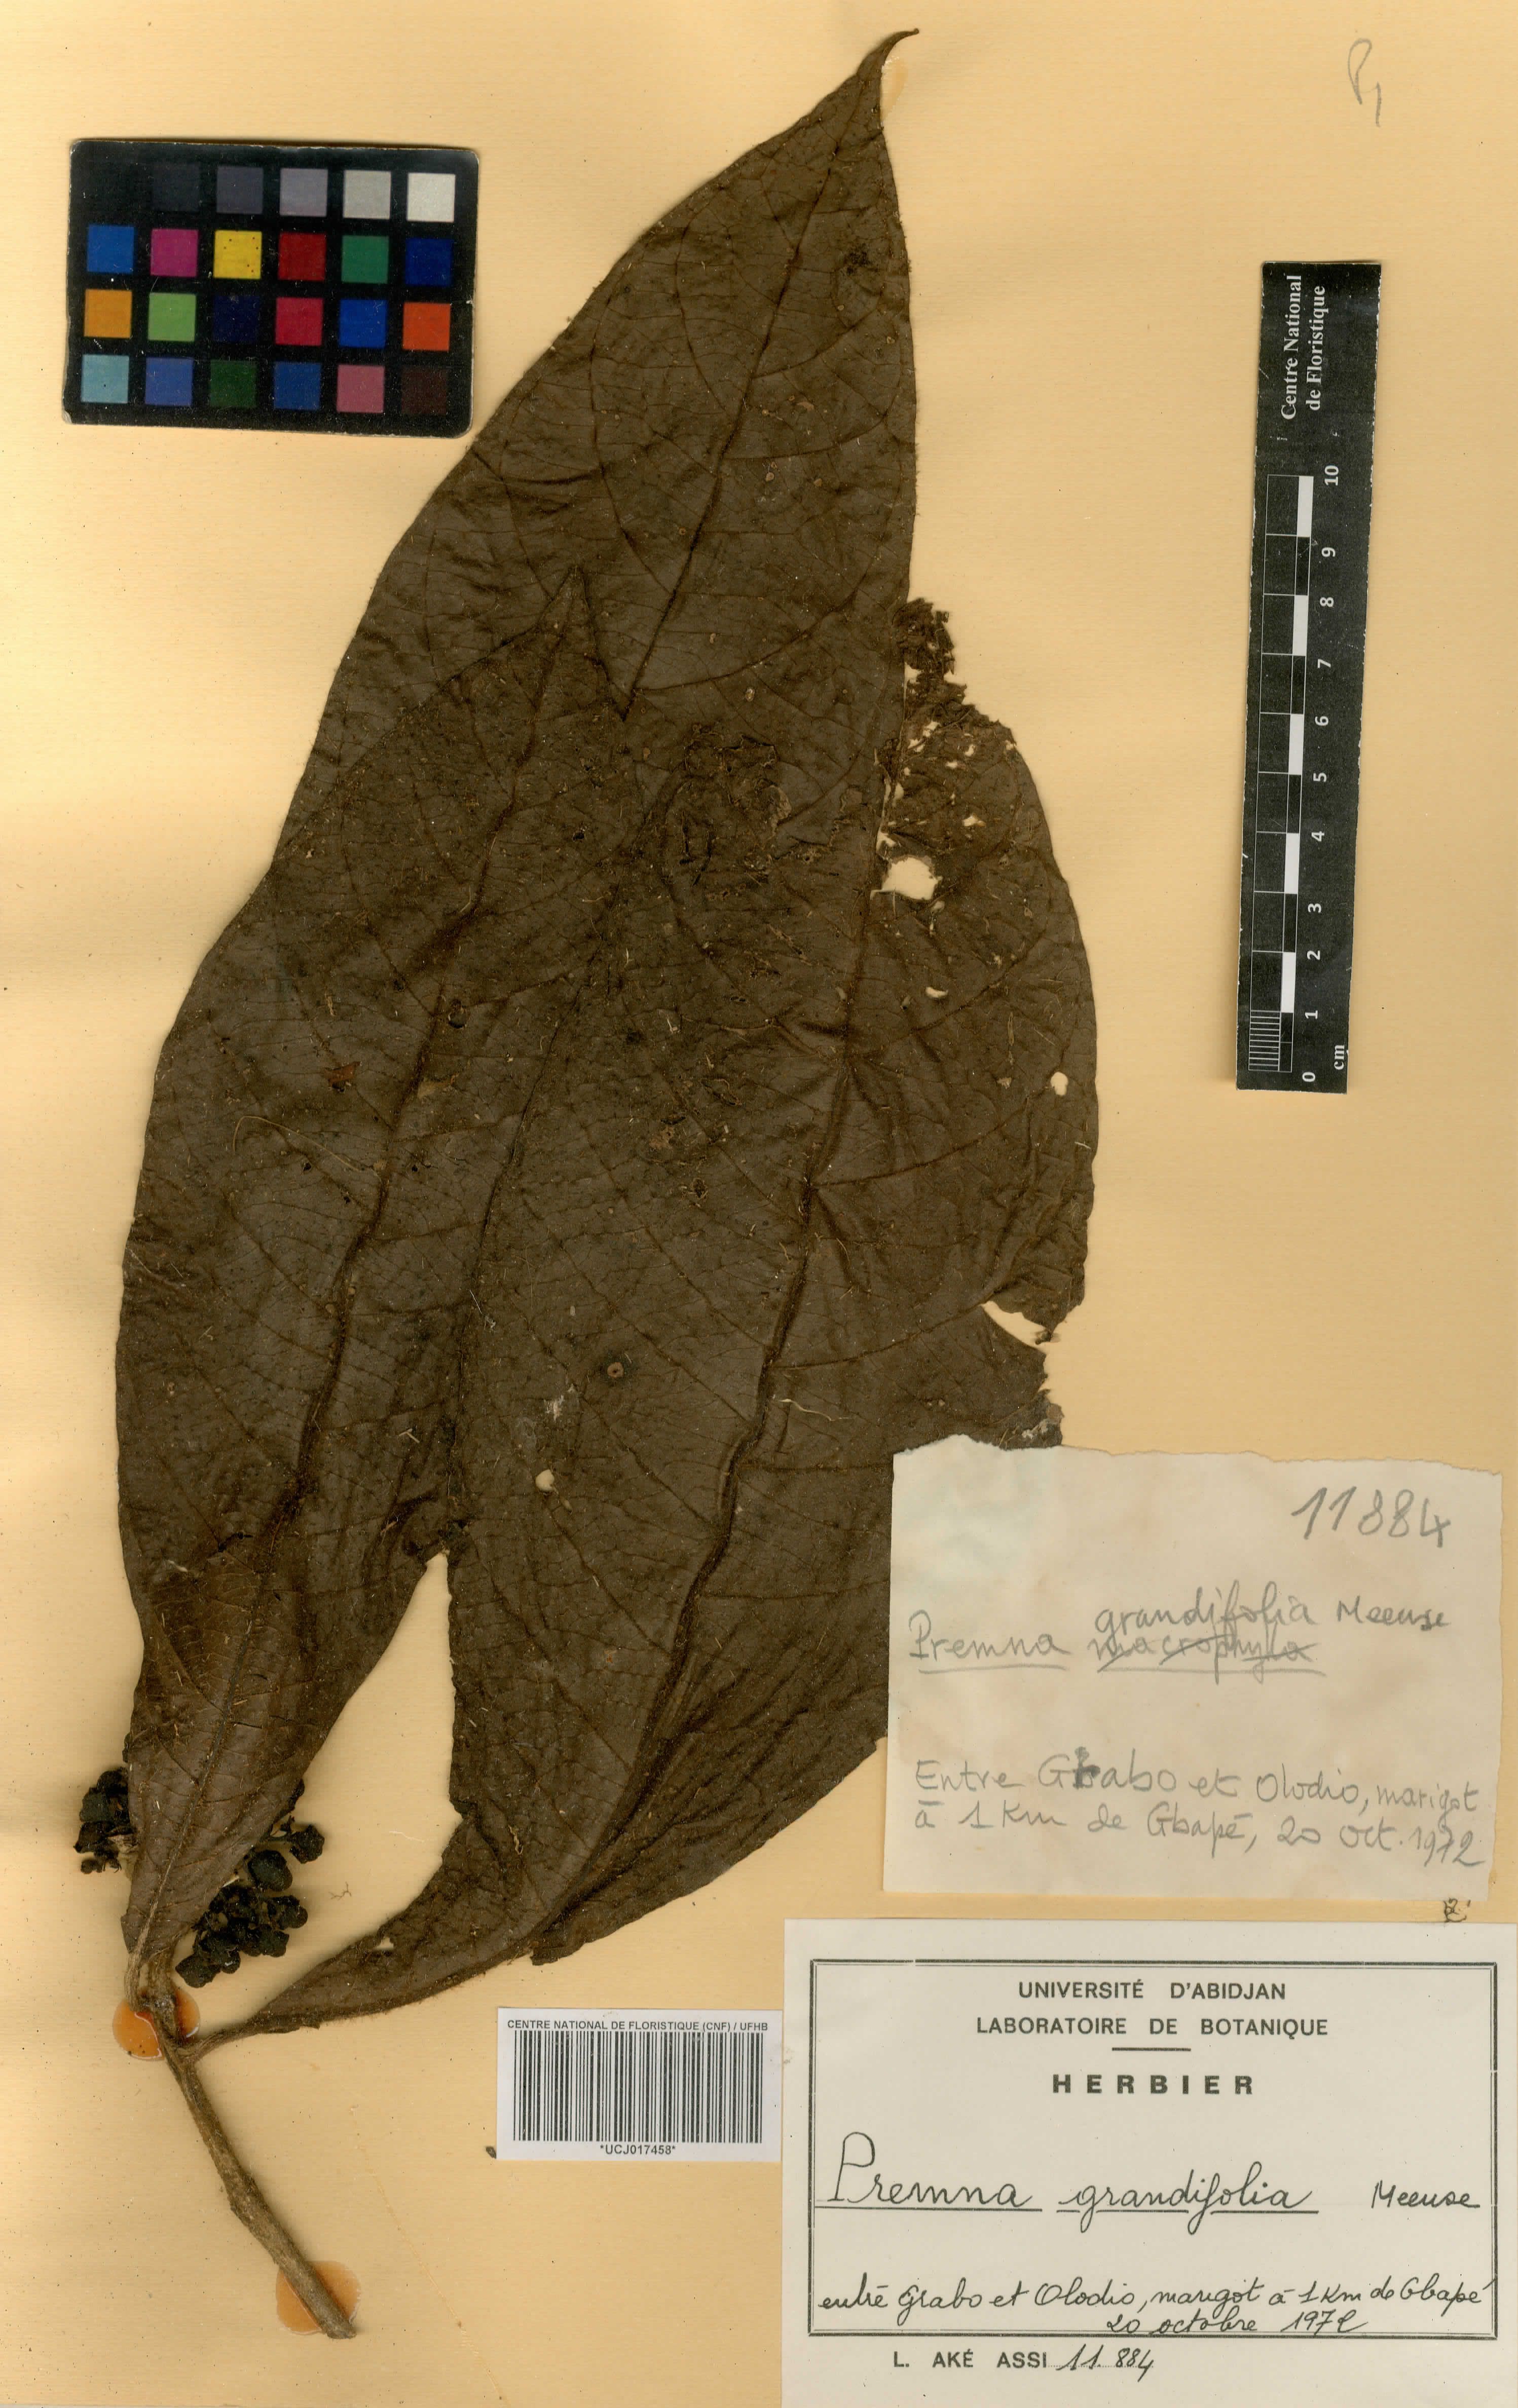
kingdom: Plantae
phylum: Tracheophyta
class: Magnoliopsida
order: Lamiales
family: Lamiaceae
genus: Premna
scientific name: Premna hutchinsonii
